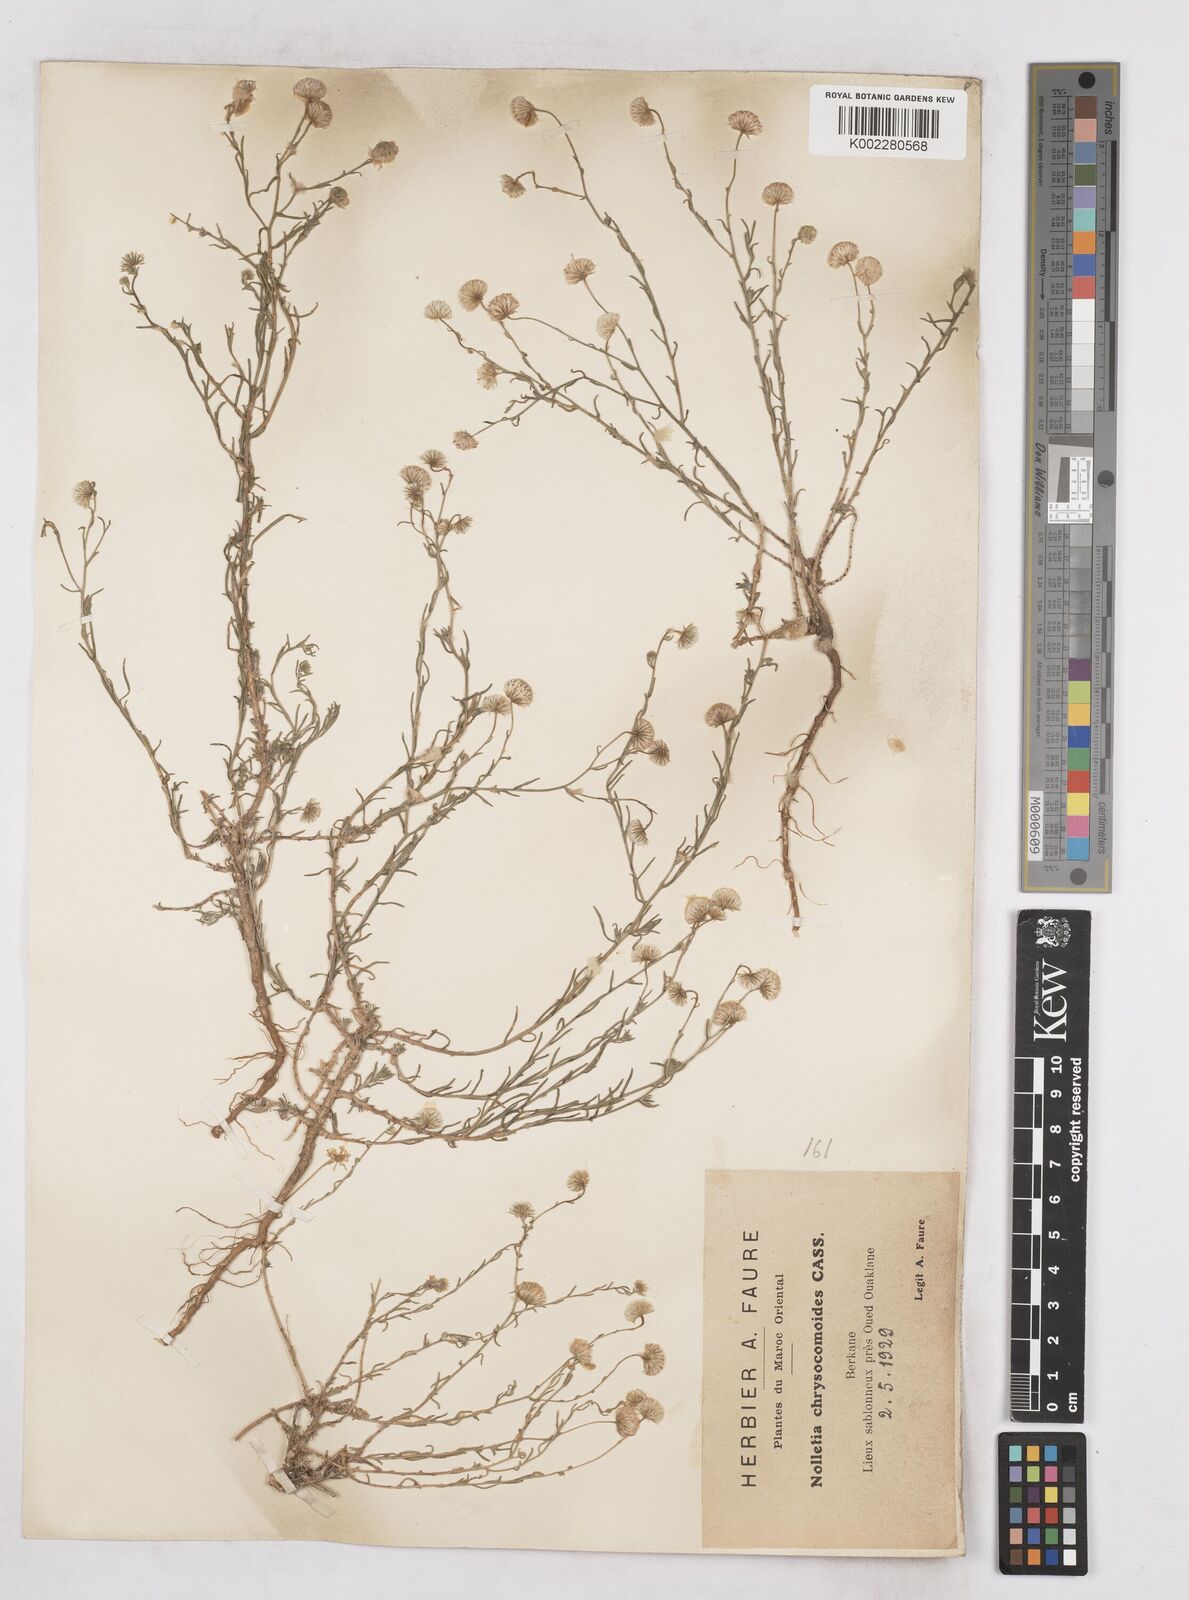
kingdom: Plantae
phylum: Tracheophyta
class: Magnoliopsida
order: Asterales
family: Asteraceae
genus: Nolletia
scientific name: Nolletia chrysocomoides
